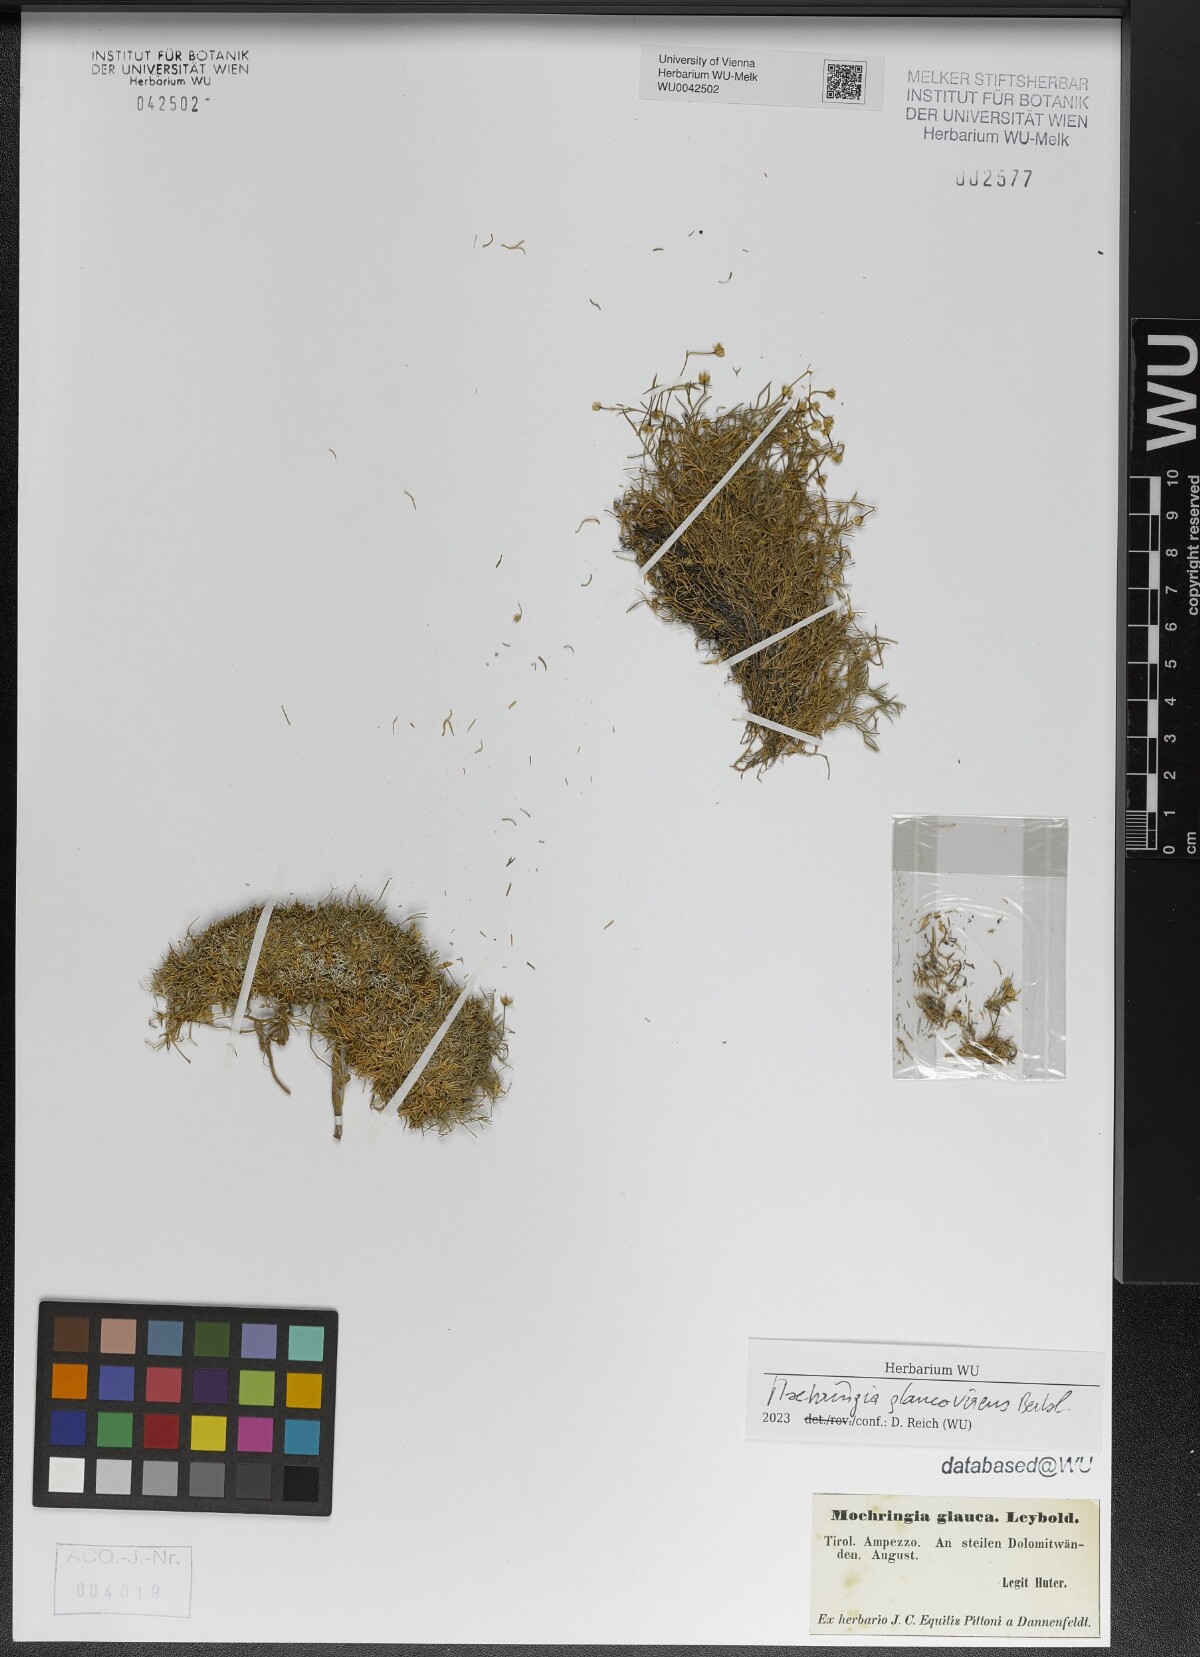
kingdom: Plantae
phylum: Tracheophyta
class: Magnoliopsida
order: Caryophyllales
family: Caryophyllaceae
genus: Moehringia
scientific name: Moehringia glaucovirens
